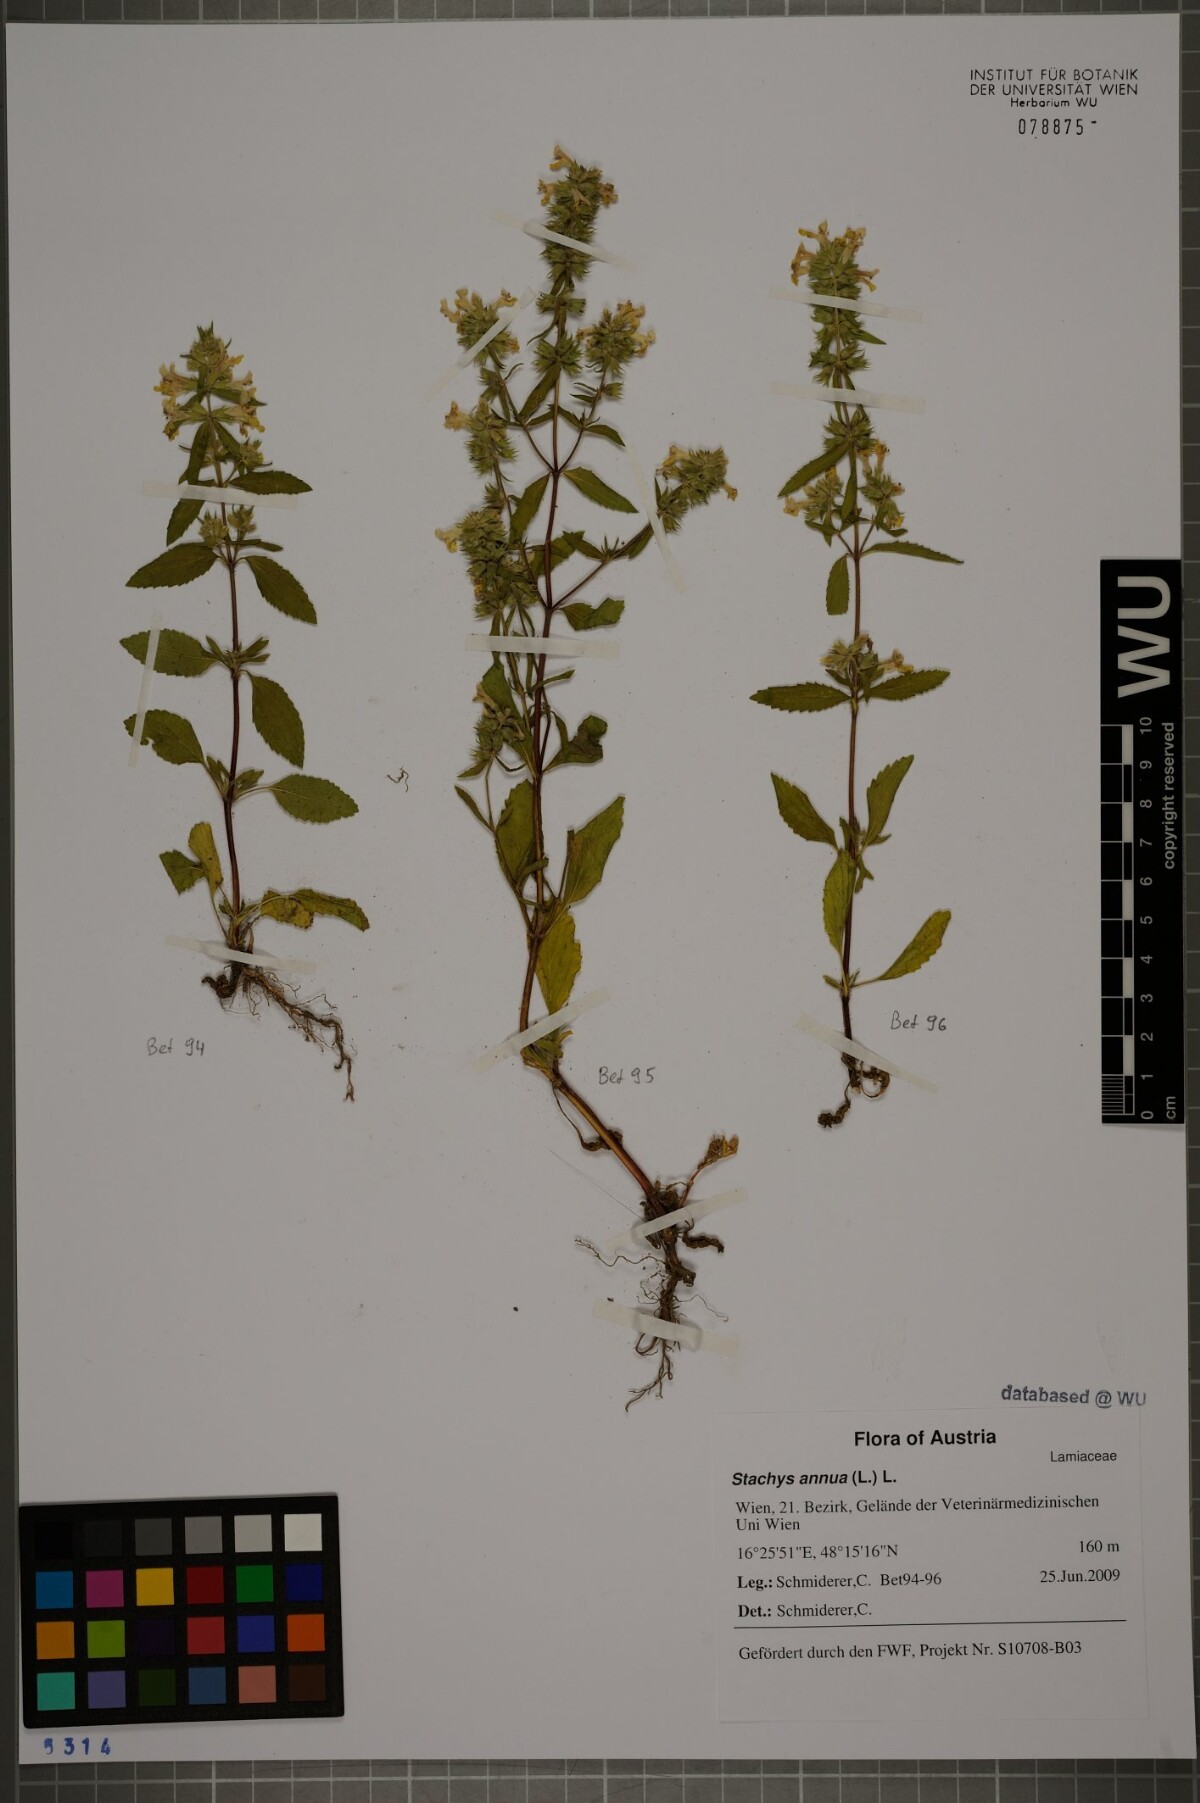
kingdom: Plantae
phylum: Tracheophyta
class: Magnoliopsida
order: Lamiales
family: Lamiaceae
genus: Stachys
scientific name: Stachys annua
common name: Annual yellow-woundwort
